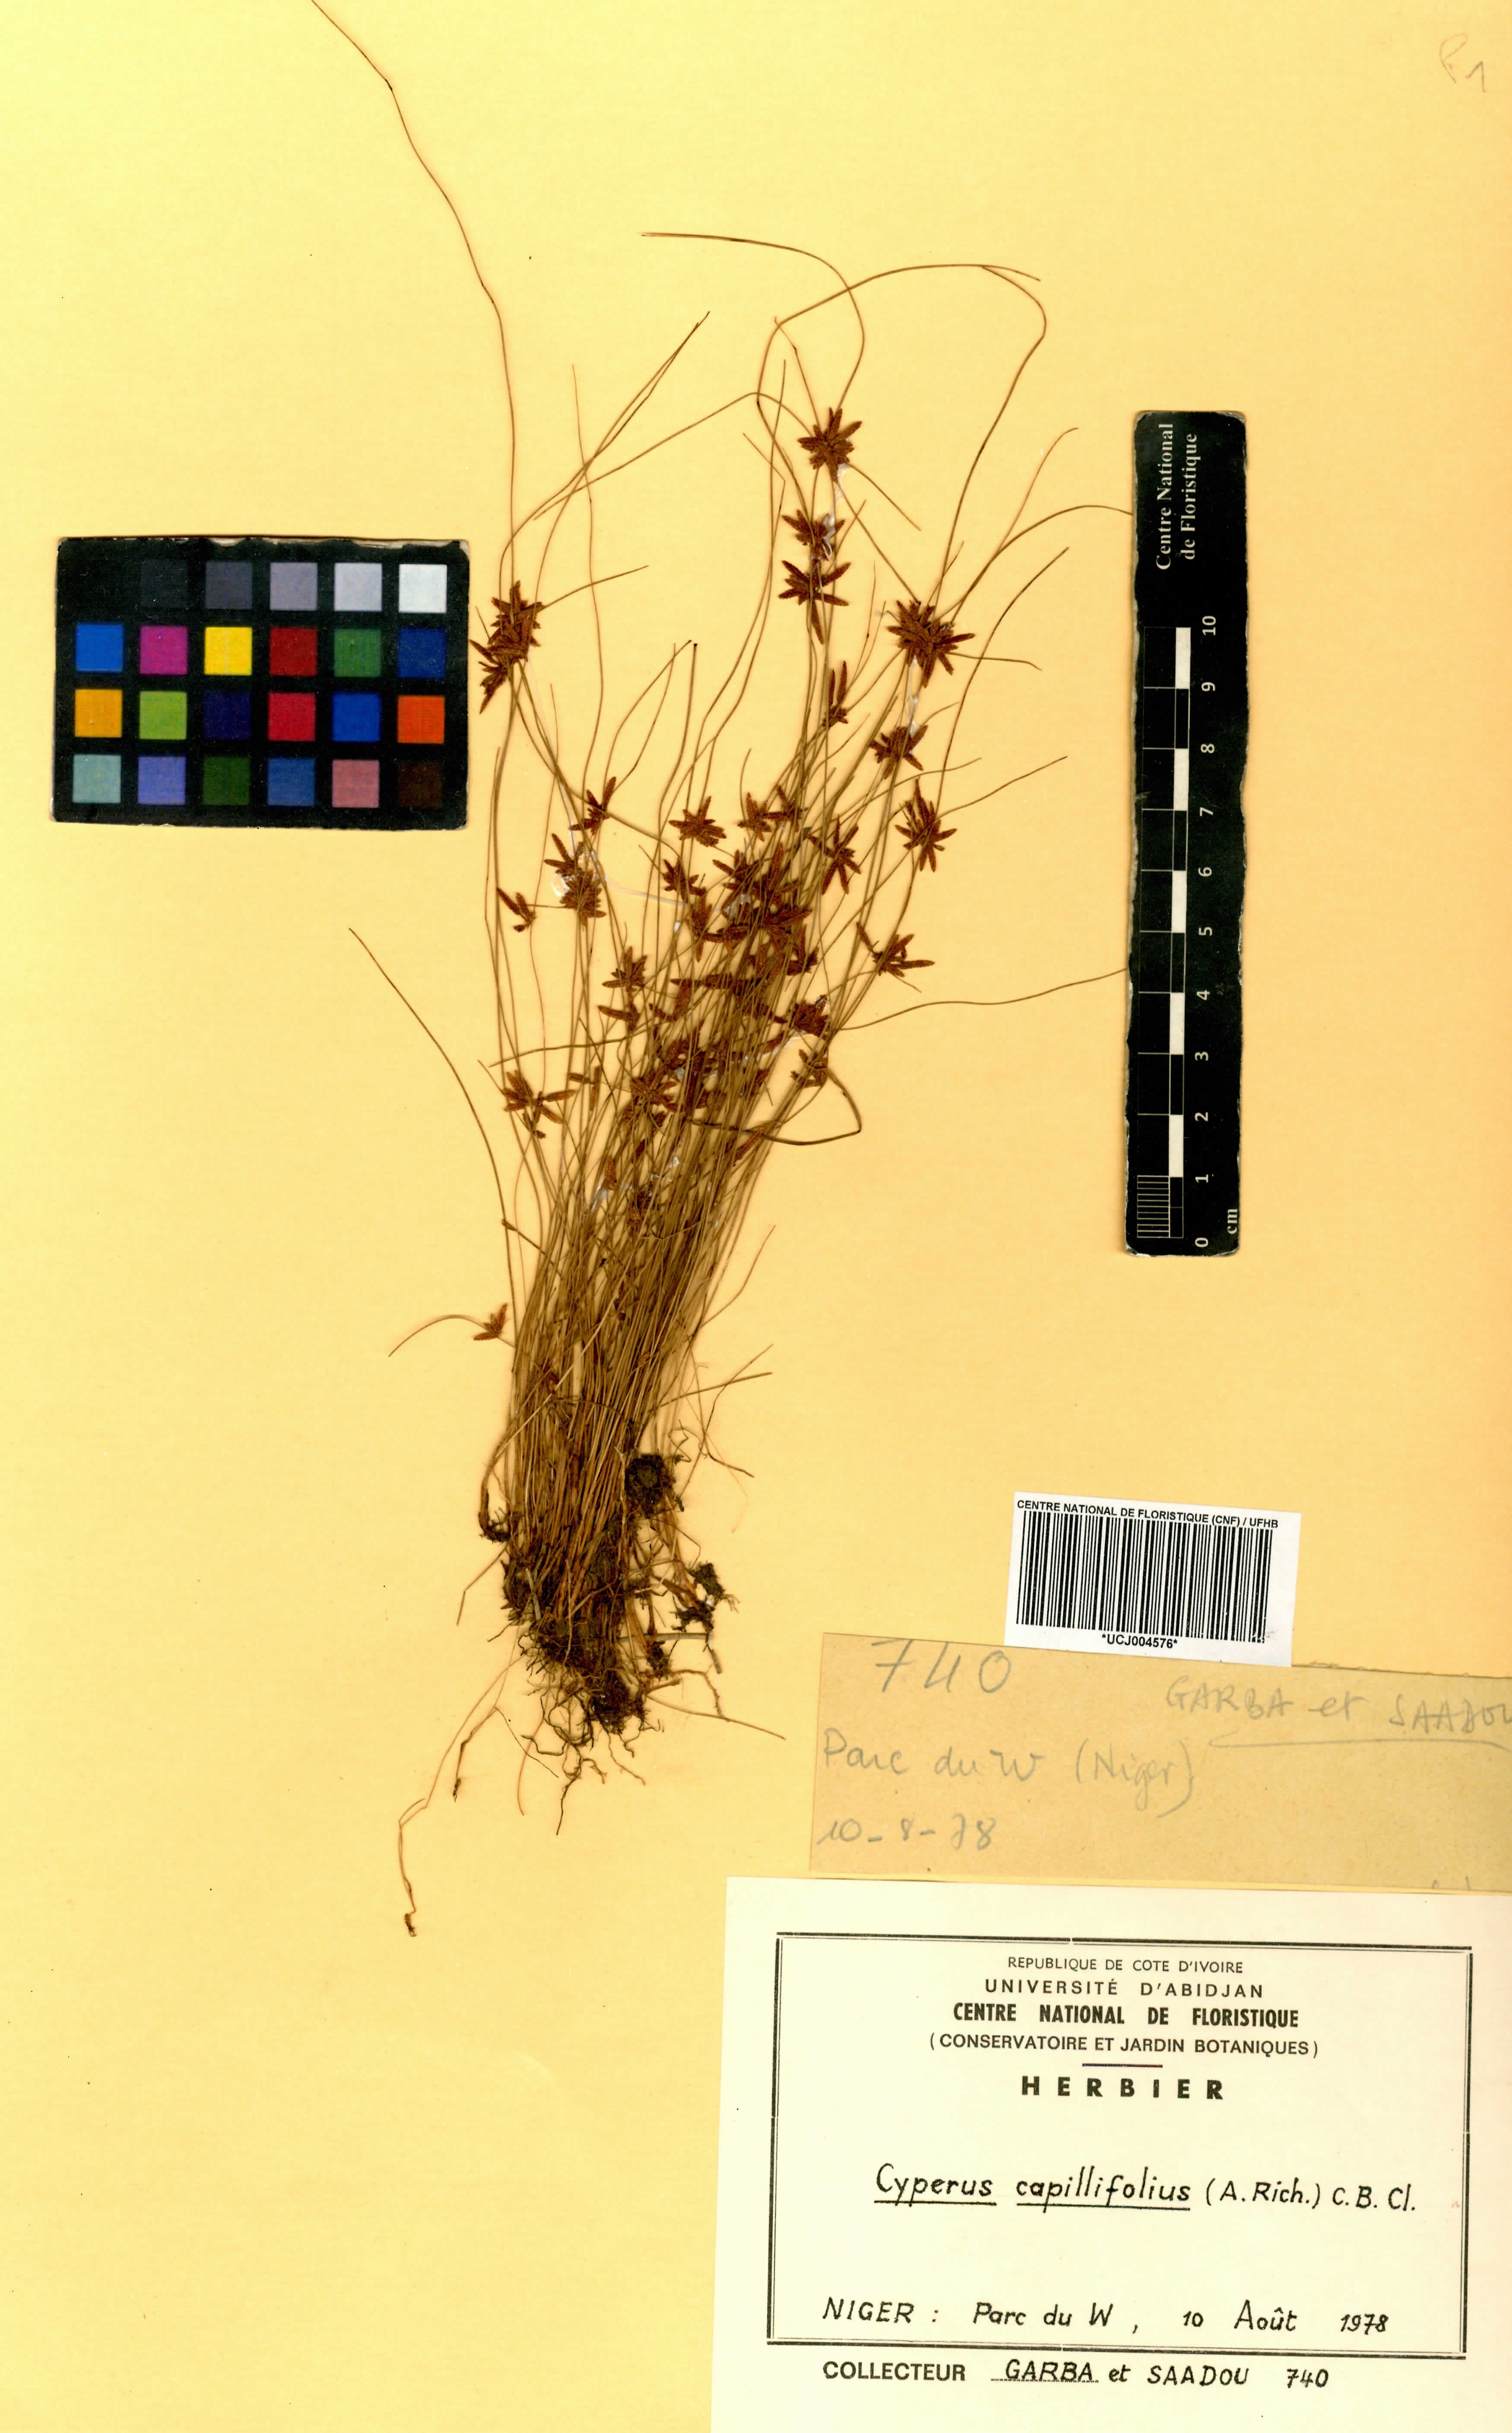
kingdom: Plantae
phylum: Tracheophyta
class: Liliopsida
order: Poales
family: Cyperaceae
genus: Cyperus
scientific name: Cyperus capillifolius
